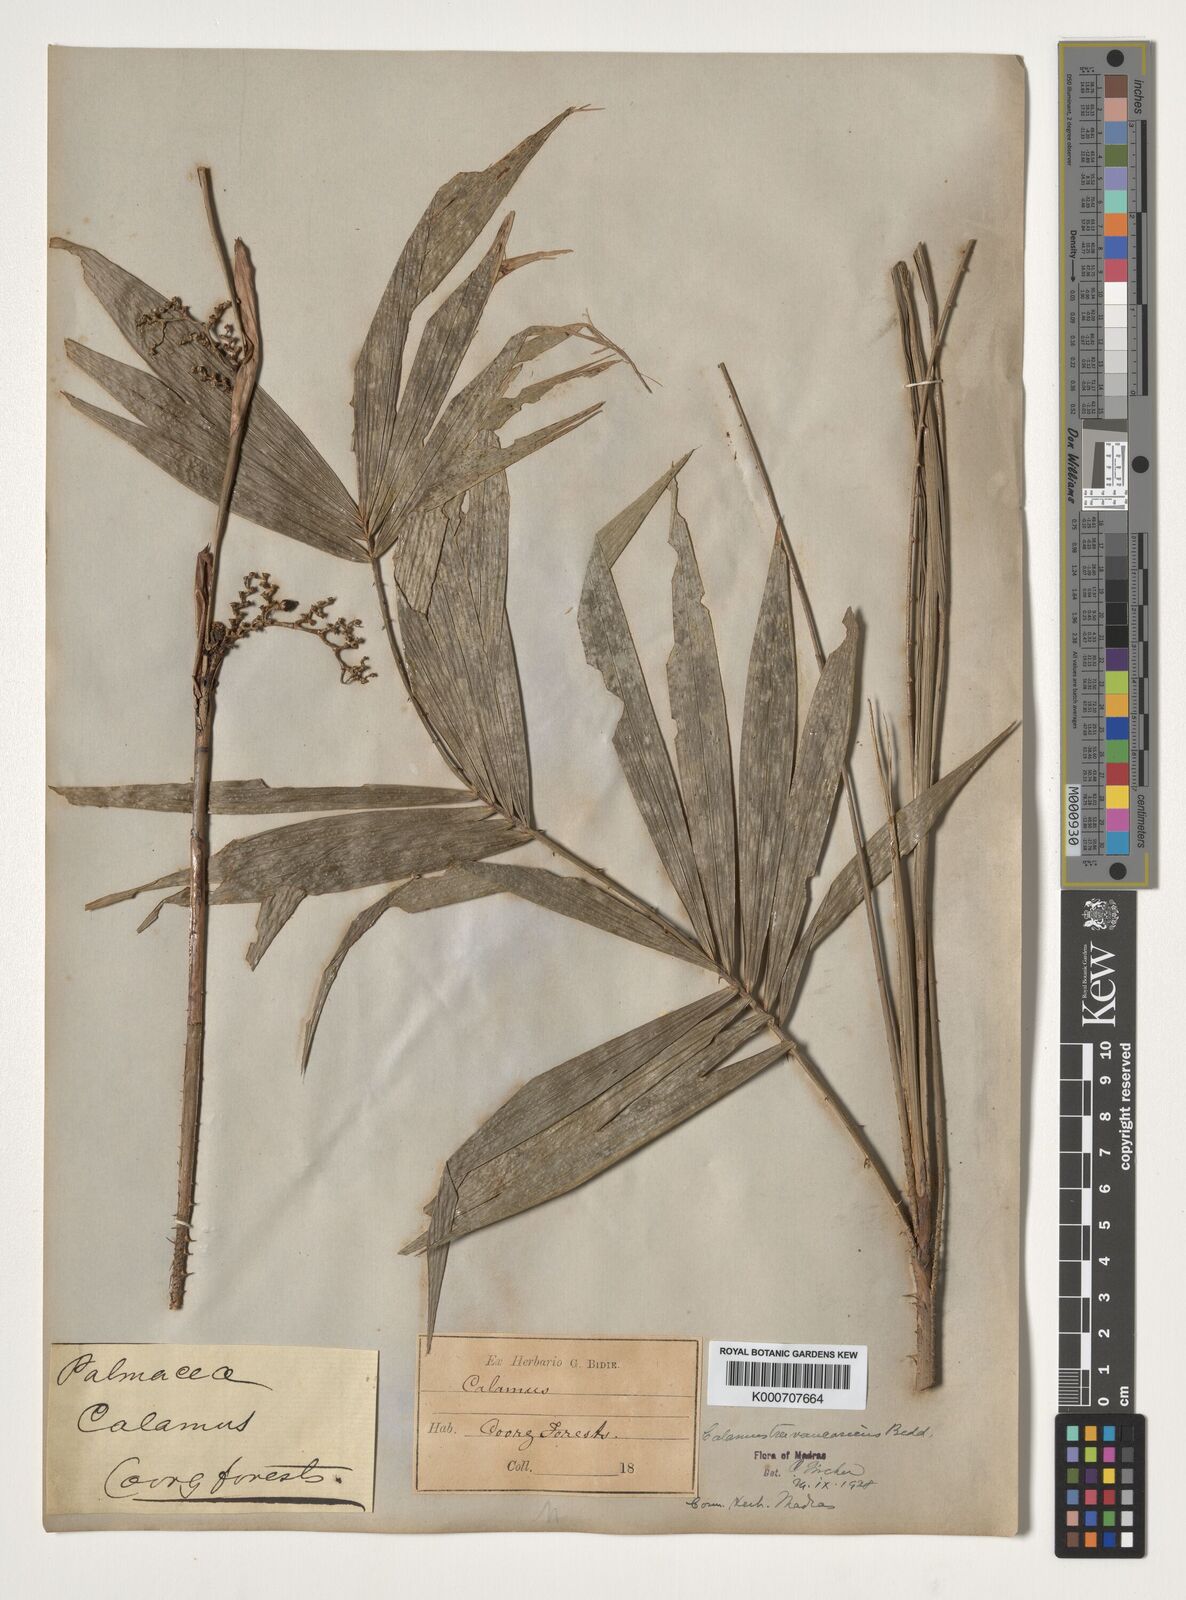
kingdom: Plantae
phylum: Tracheophyta
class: Liliopsida
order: Arecales
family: Arecaceae
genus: Calamus
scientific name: Calamus rheedei
